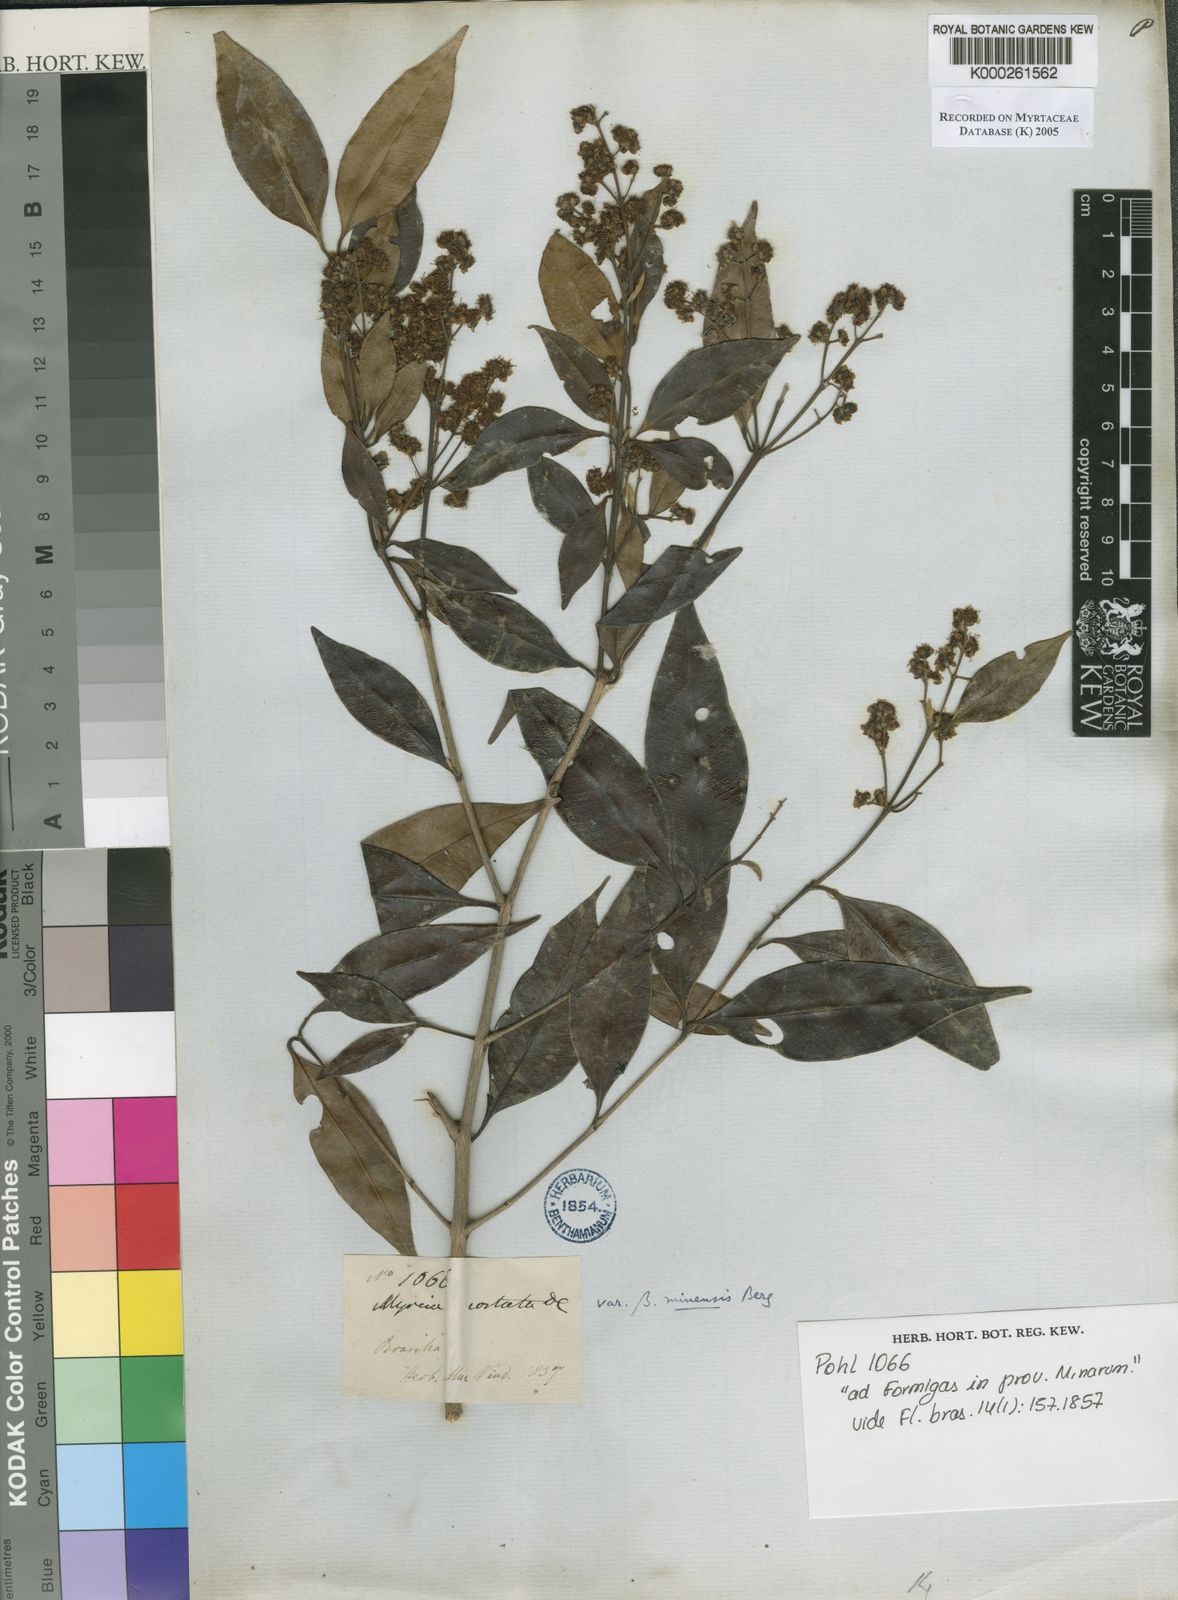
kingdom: Plantae
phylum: Tracheophyta
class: Magnoliopsida
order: Myrtales
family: Myrtaceae
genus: Myrcia
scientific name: Myrcia splendens
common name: Surinam cherry
